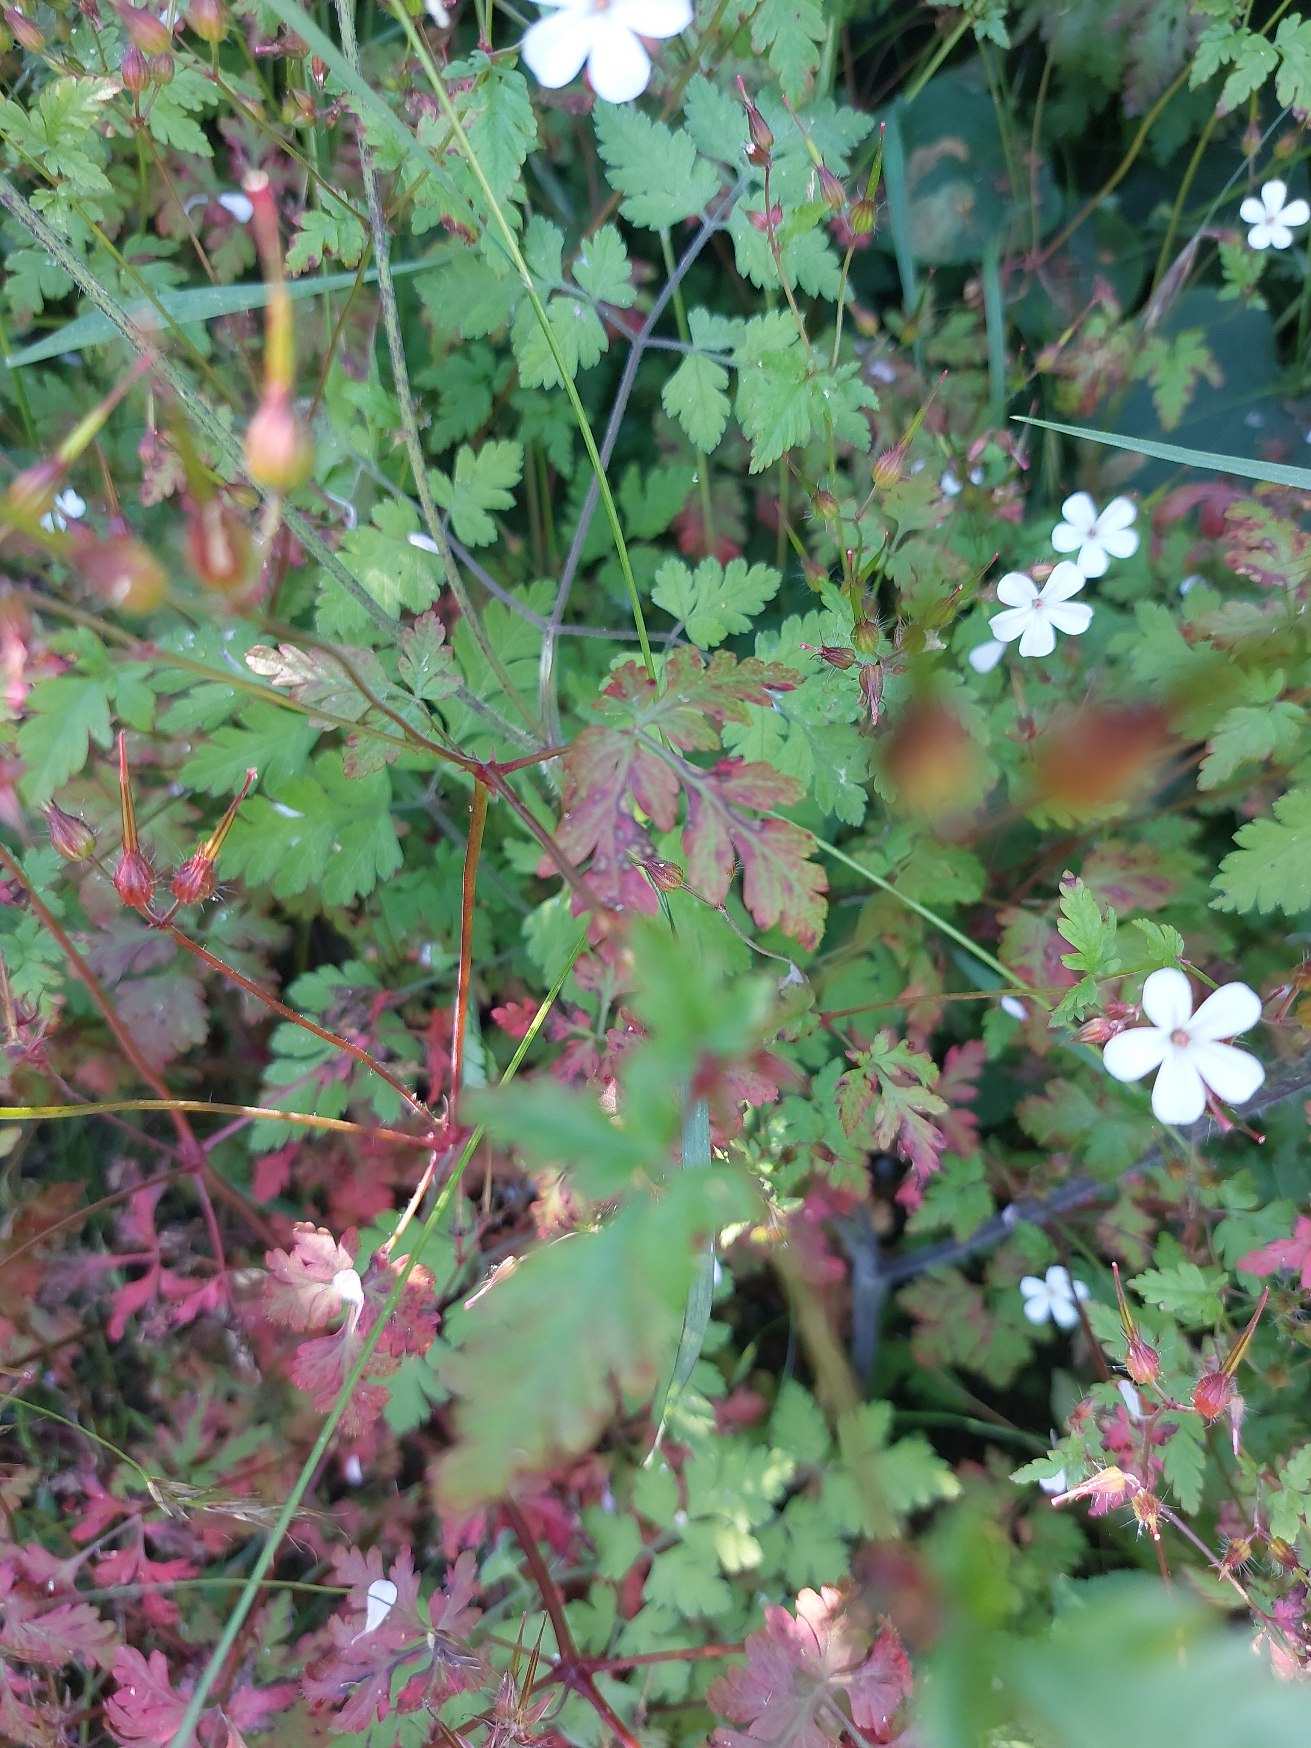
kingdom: Plantae
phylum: Tracheophyta
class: Magnoliopsida
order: Geraniales
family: Geraniaceae
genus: Geranium
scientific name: Geranium robertianum
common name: Stinkende storkenæb
